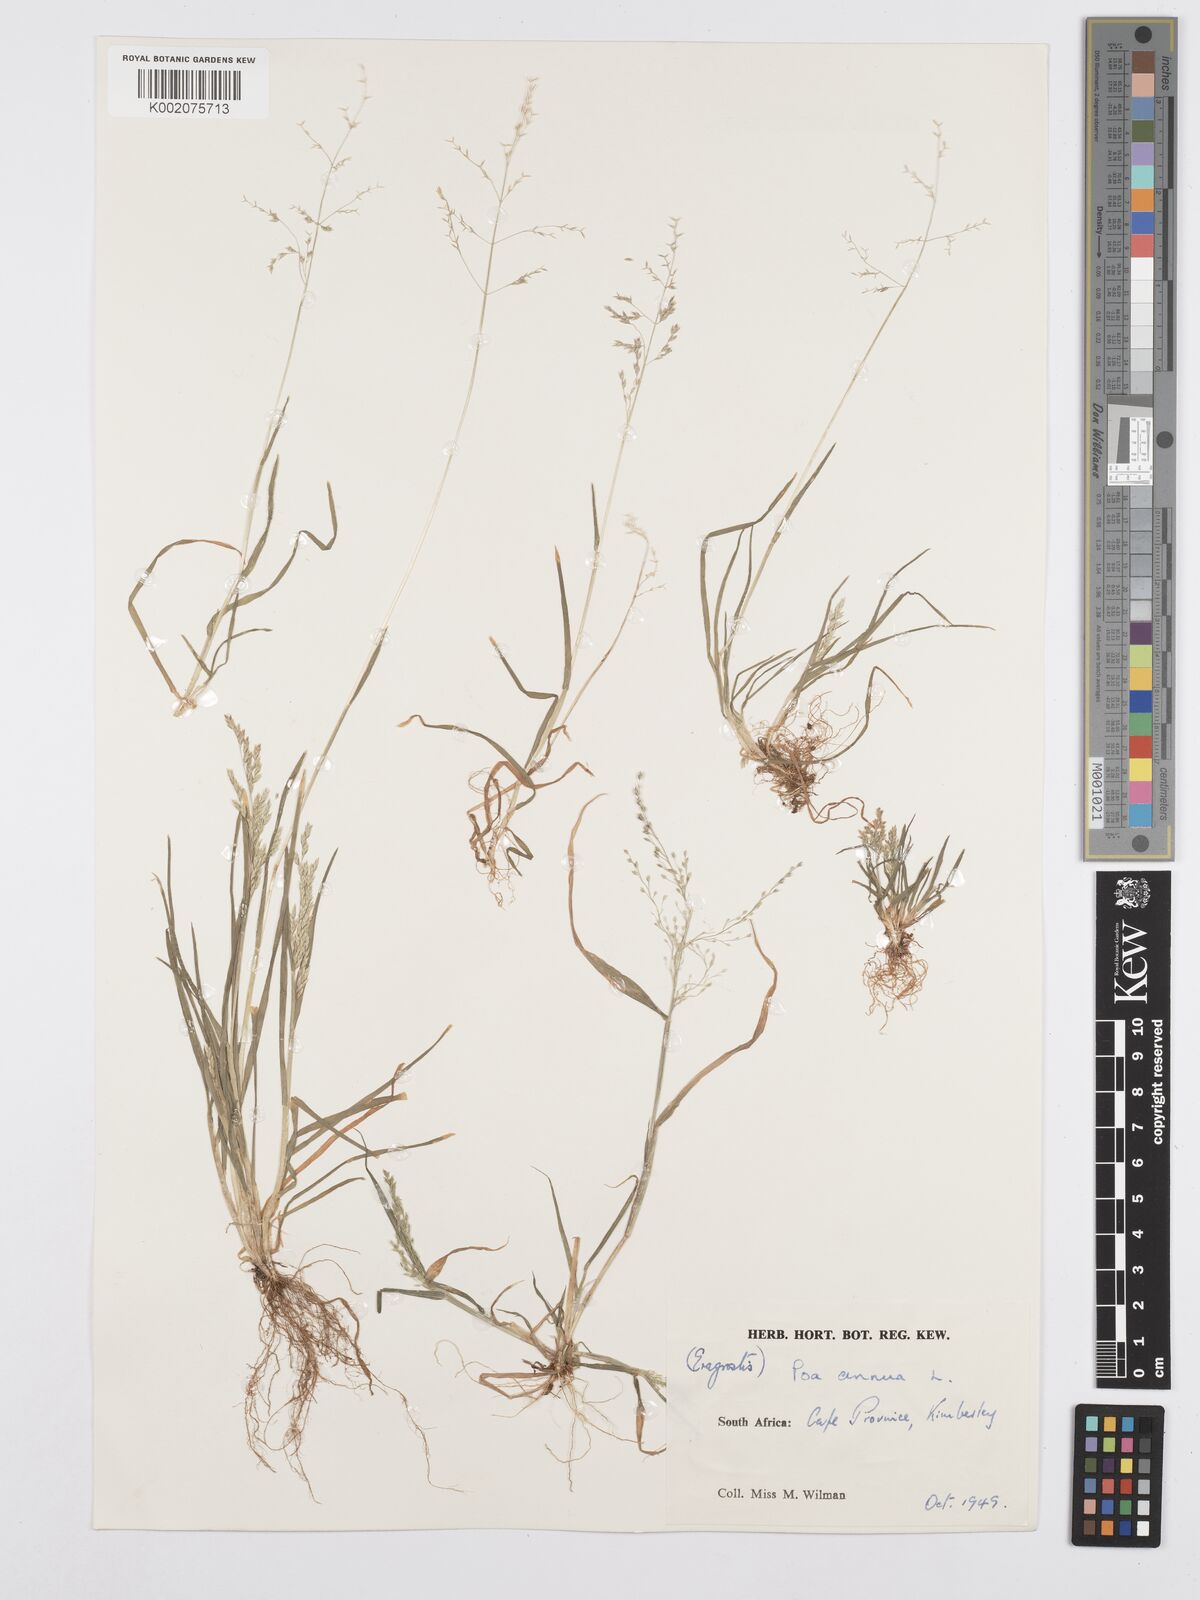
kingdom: Plantae
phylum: Tracheophyta
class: Liliopsida
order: Poales
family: Poaceae
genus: Poa
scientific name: Poa annua
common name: Annual bluegrass
